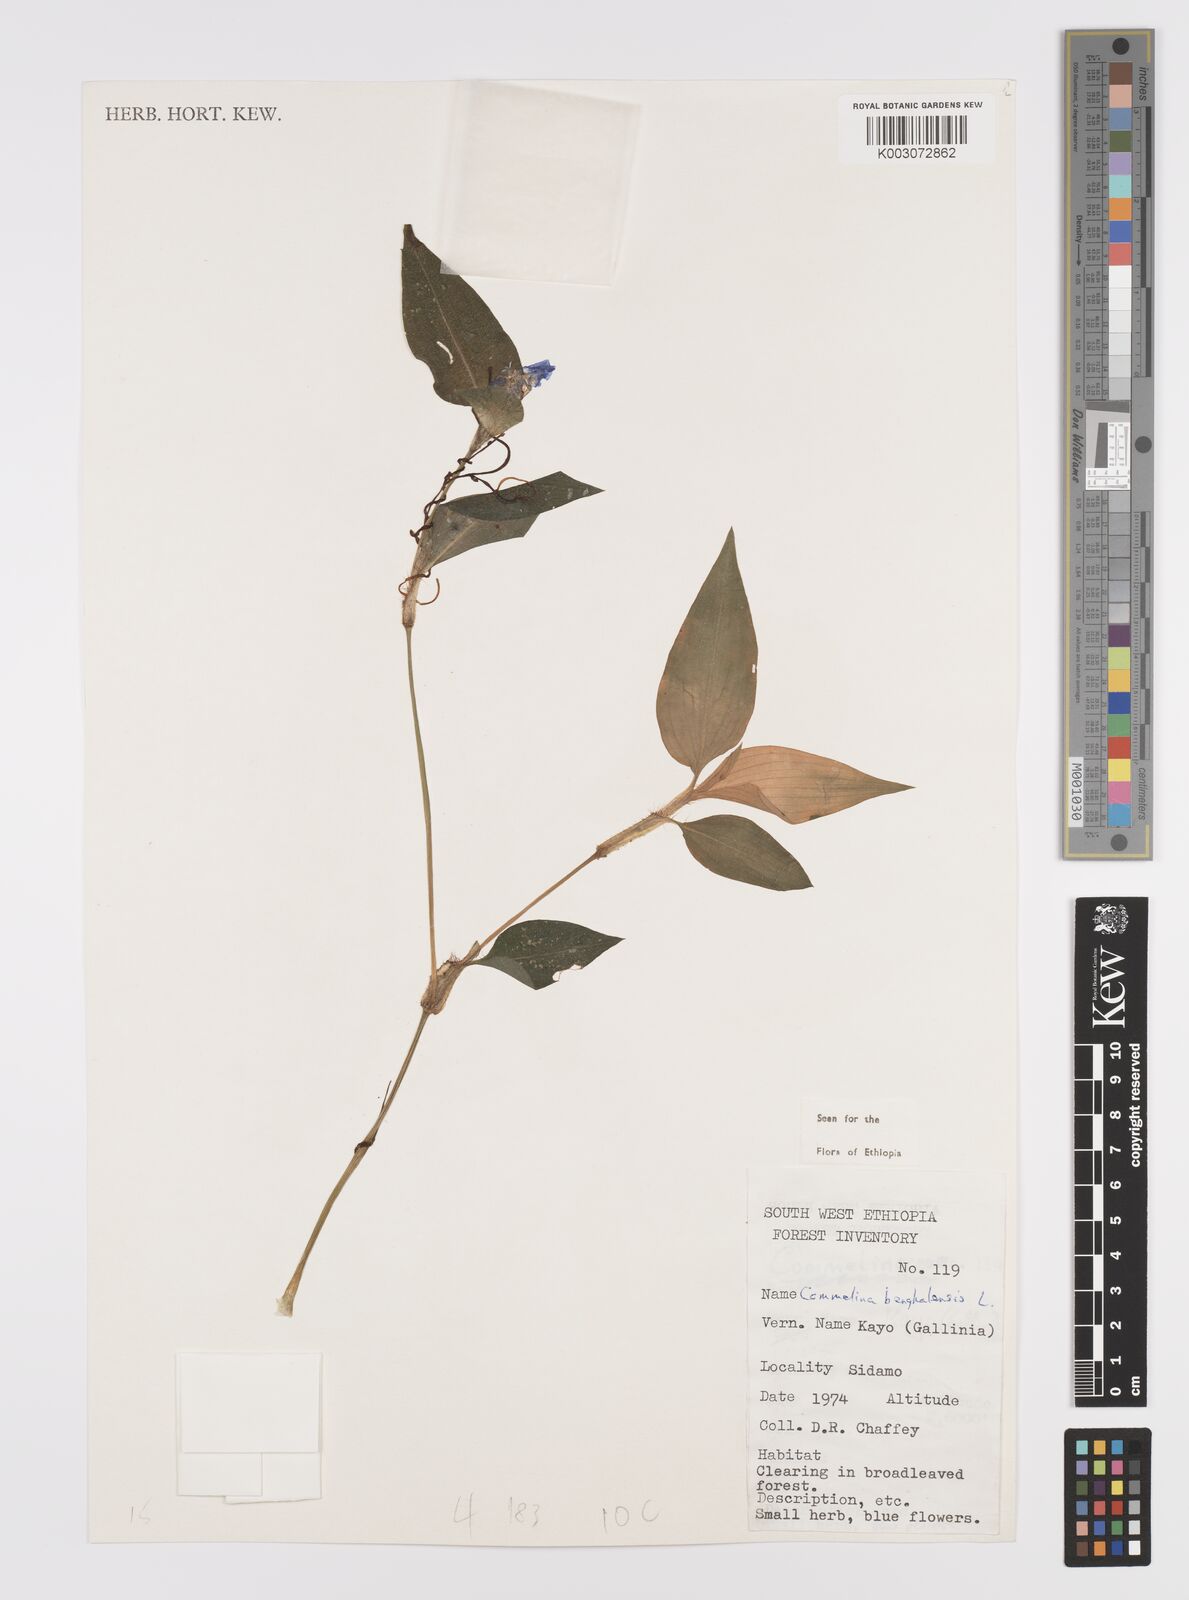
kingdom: Plantae
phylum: Tracheophyta
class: Liliopsida
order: Commelinales
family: Commelinaceae
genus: Commelina
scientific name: Commelina benghalensis
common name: Jio
